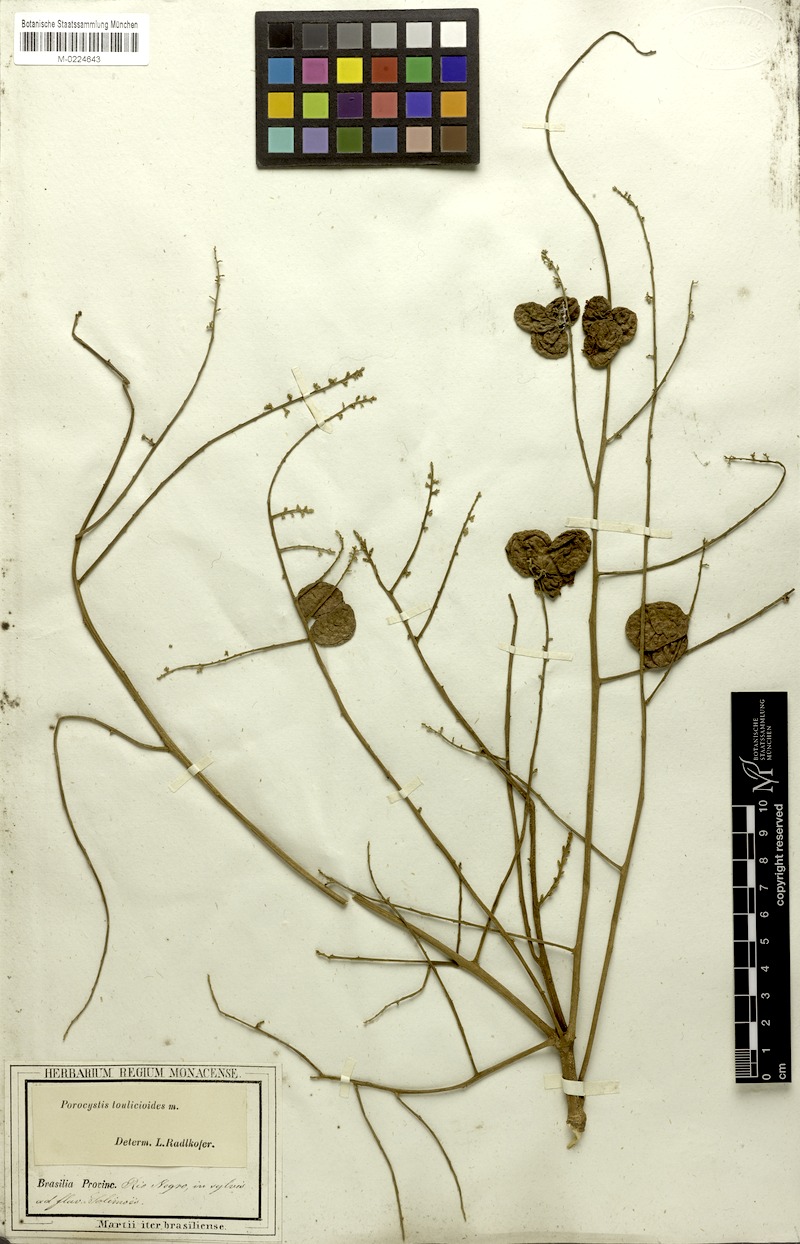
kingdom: Plantae
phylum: Tracheophyta
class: Magnoliopsida
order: Sapindales
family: Sapindaceae
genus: Porocystis
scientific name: Porocystis toulicioides
